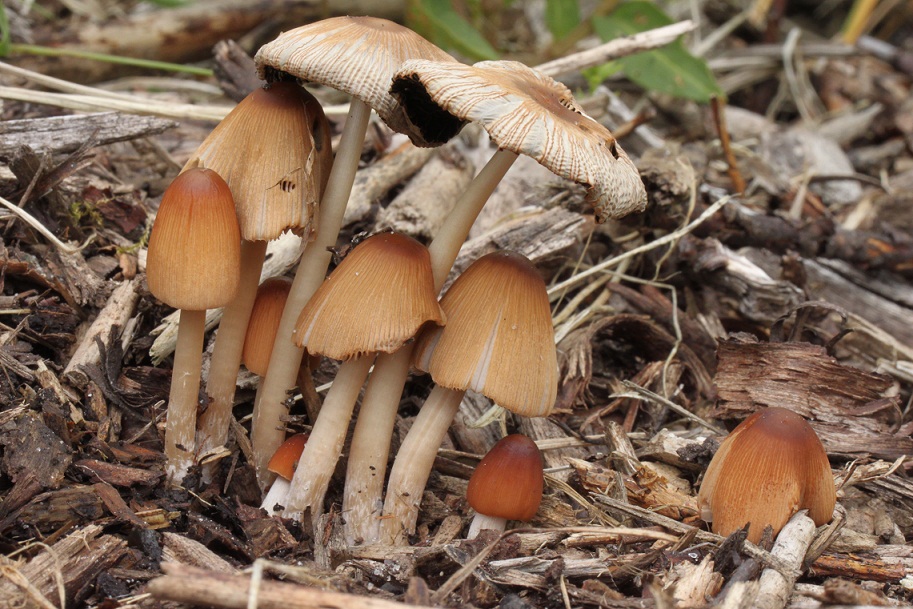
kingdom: Fungi
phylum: Basidiomycota
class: Agaricomycetes
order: Agaricales
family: Psathyrellaceae
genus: Parasola
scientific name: Parasola auricoma
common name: hansens hjulhat
